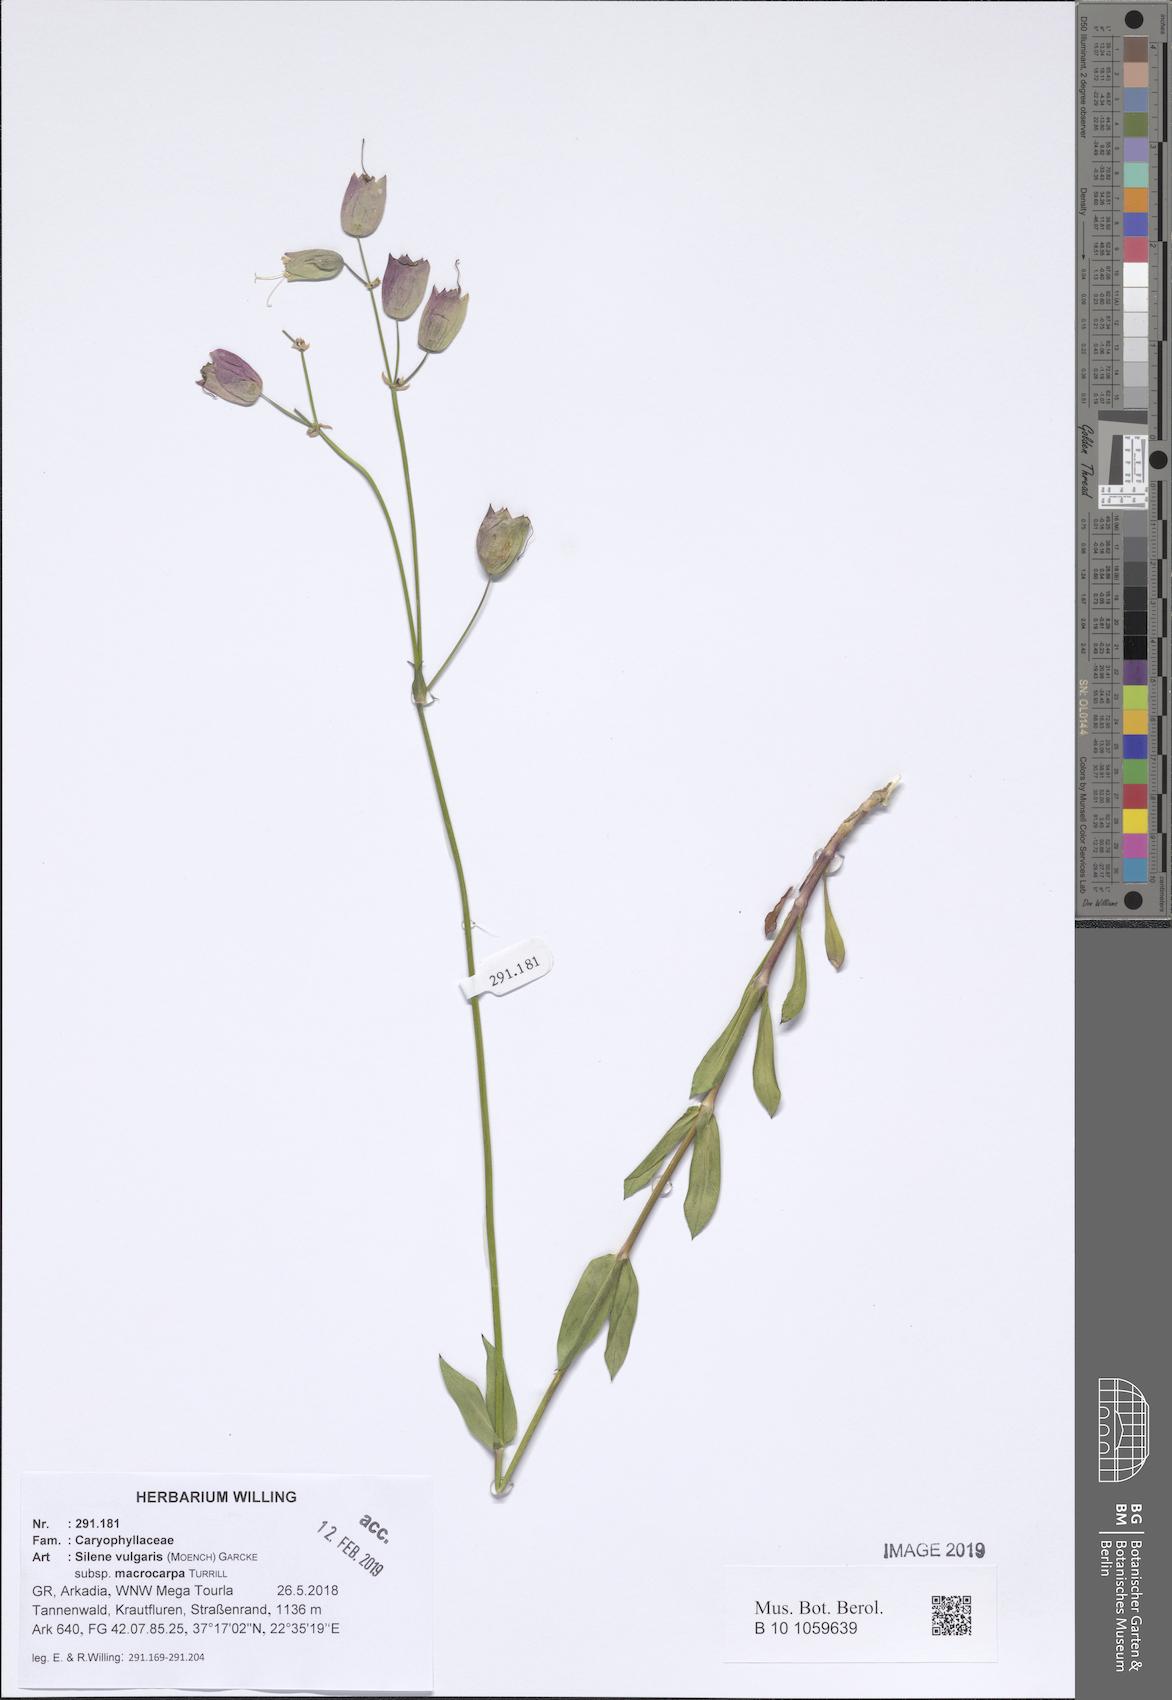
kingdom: Plantae
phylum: Tracheophyta
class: Magnoliopsida
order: Caryophyllales
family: Caryophyllaceae
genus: Silene
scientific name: Silene vulgaris
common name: Bladder campion
